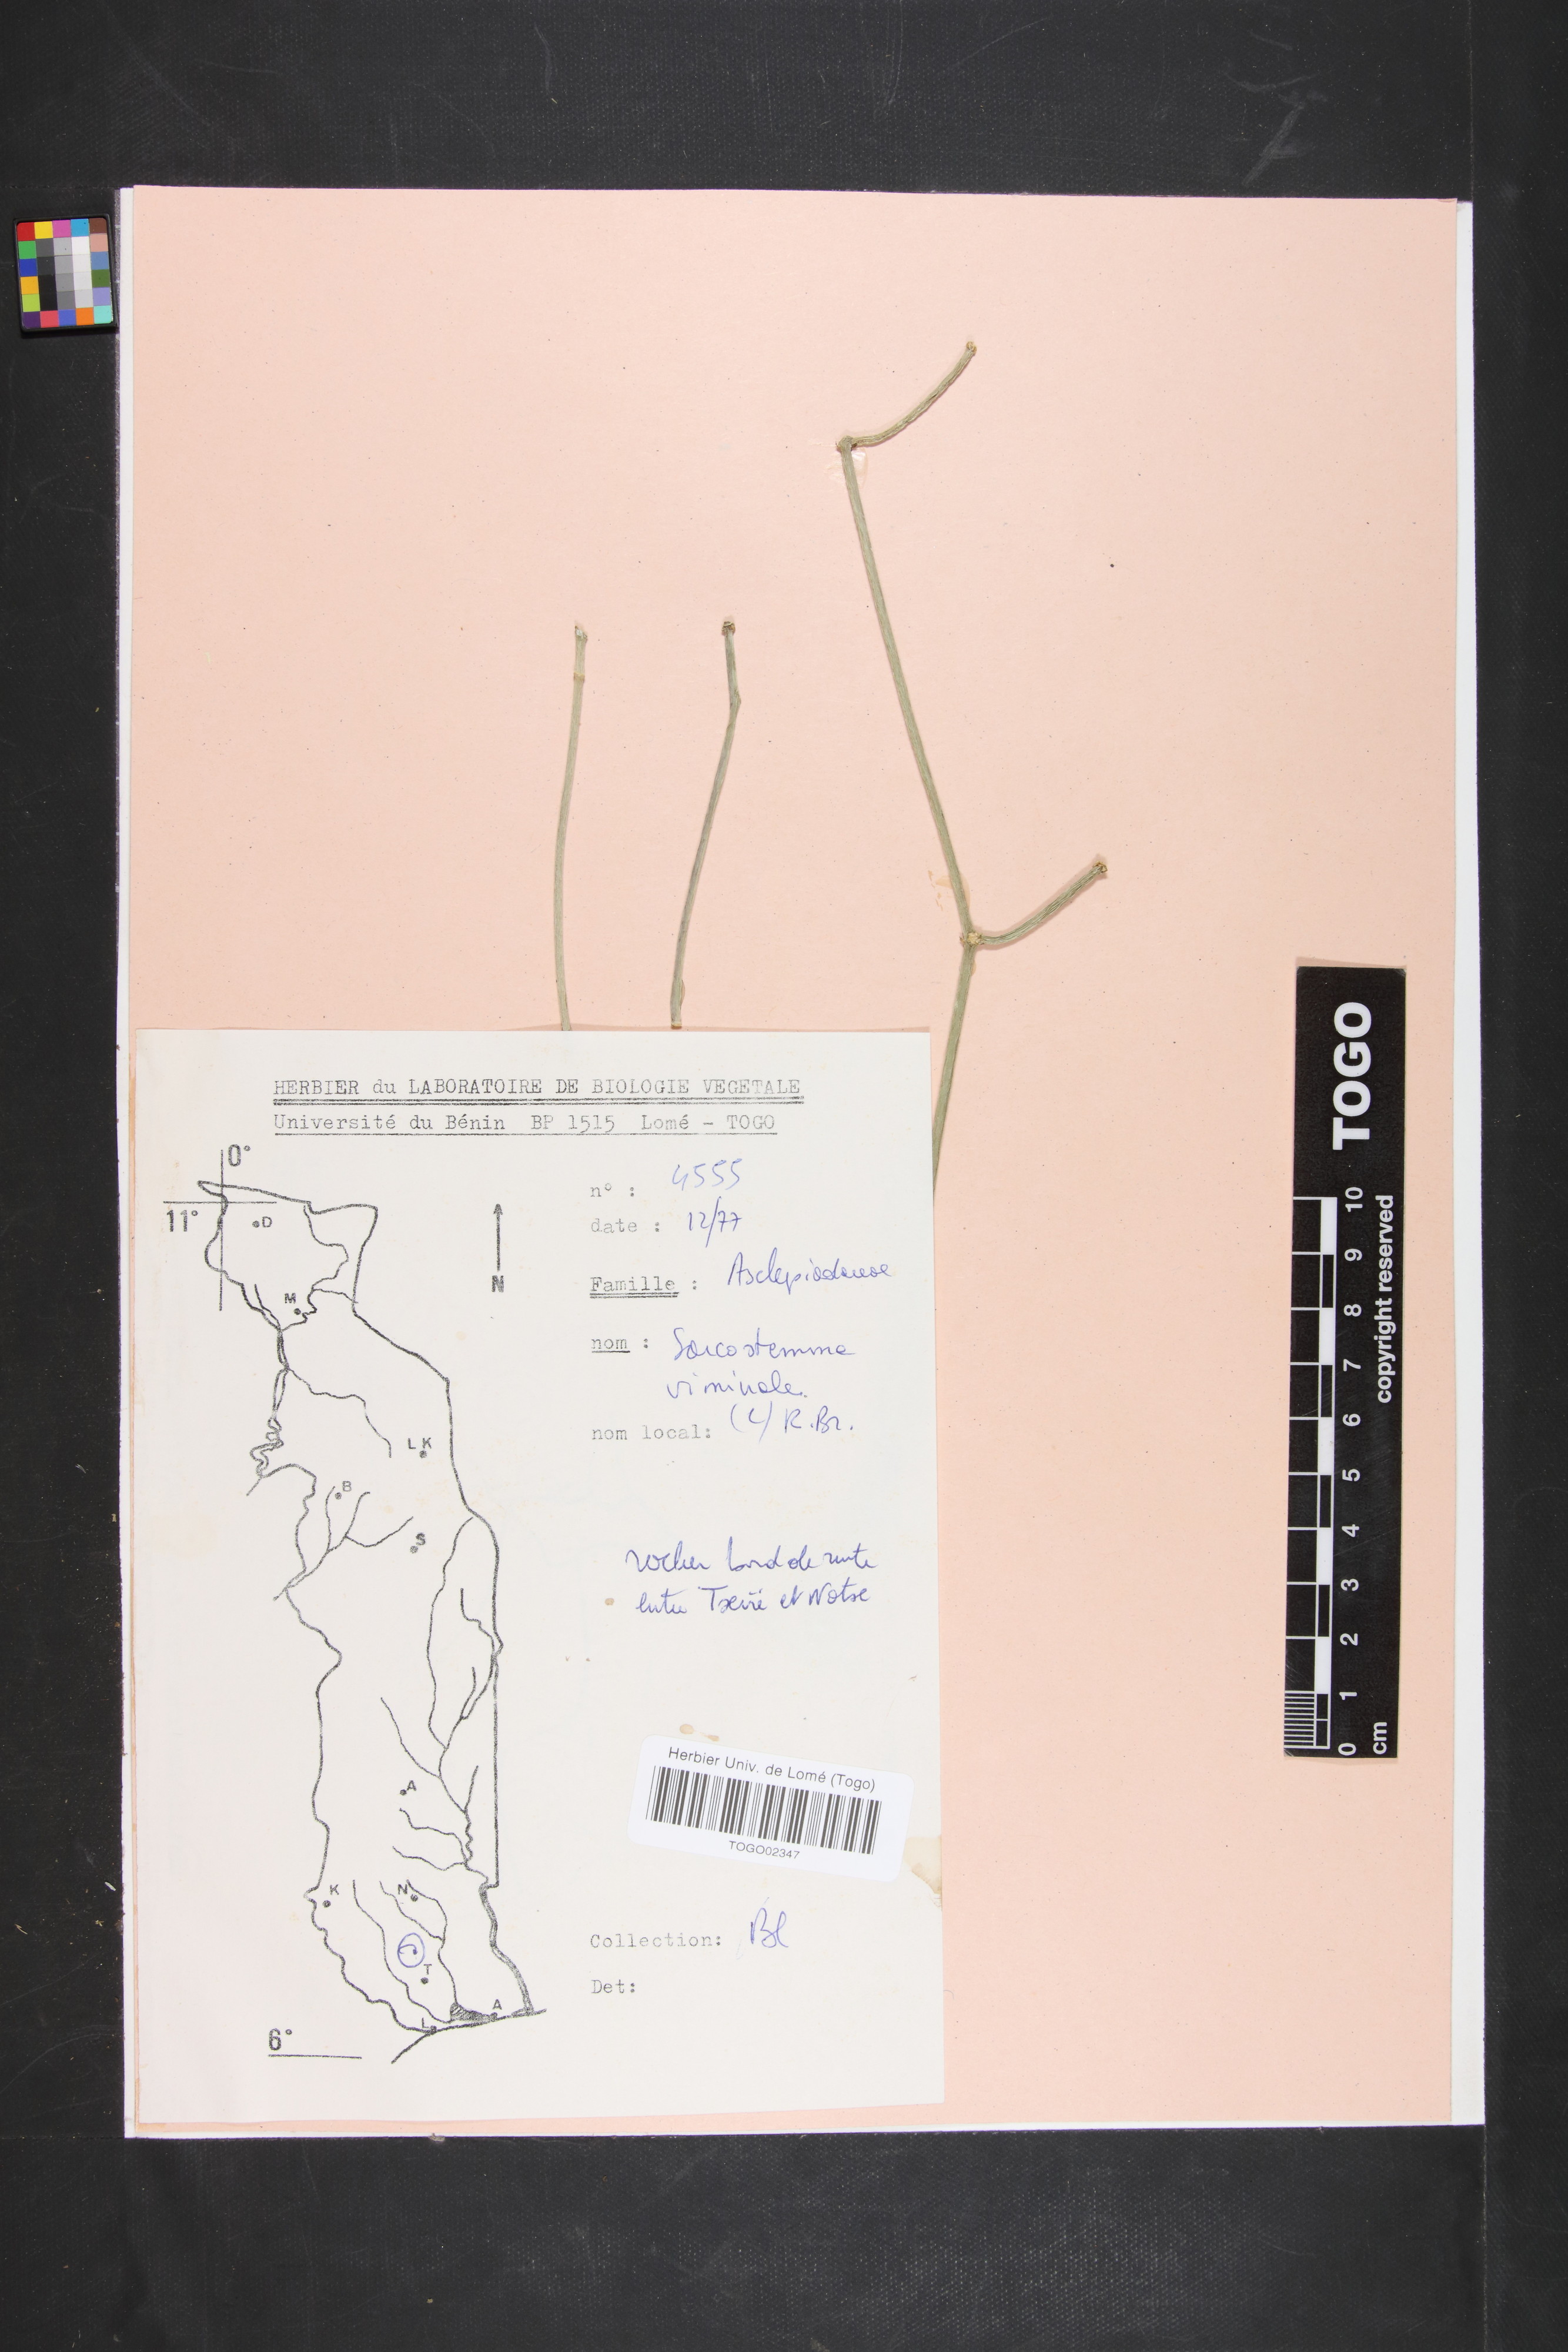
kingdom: Plantae
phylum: Tracheophyta
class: Magnoliopsida
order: Gentianales
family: Apocynaceae
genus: Cynanchum
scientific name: Cynanchum viminale
